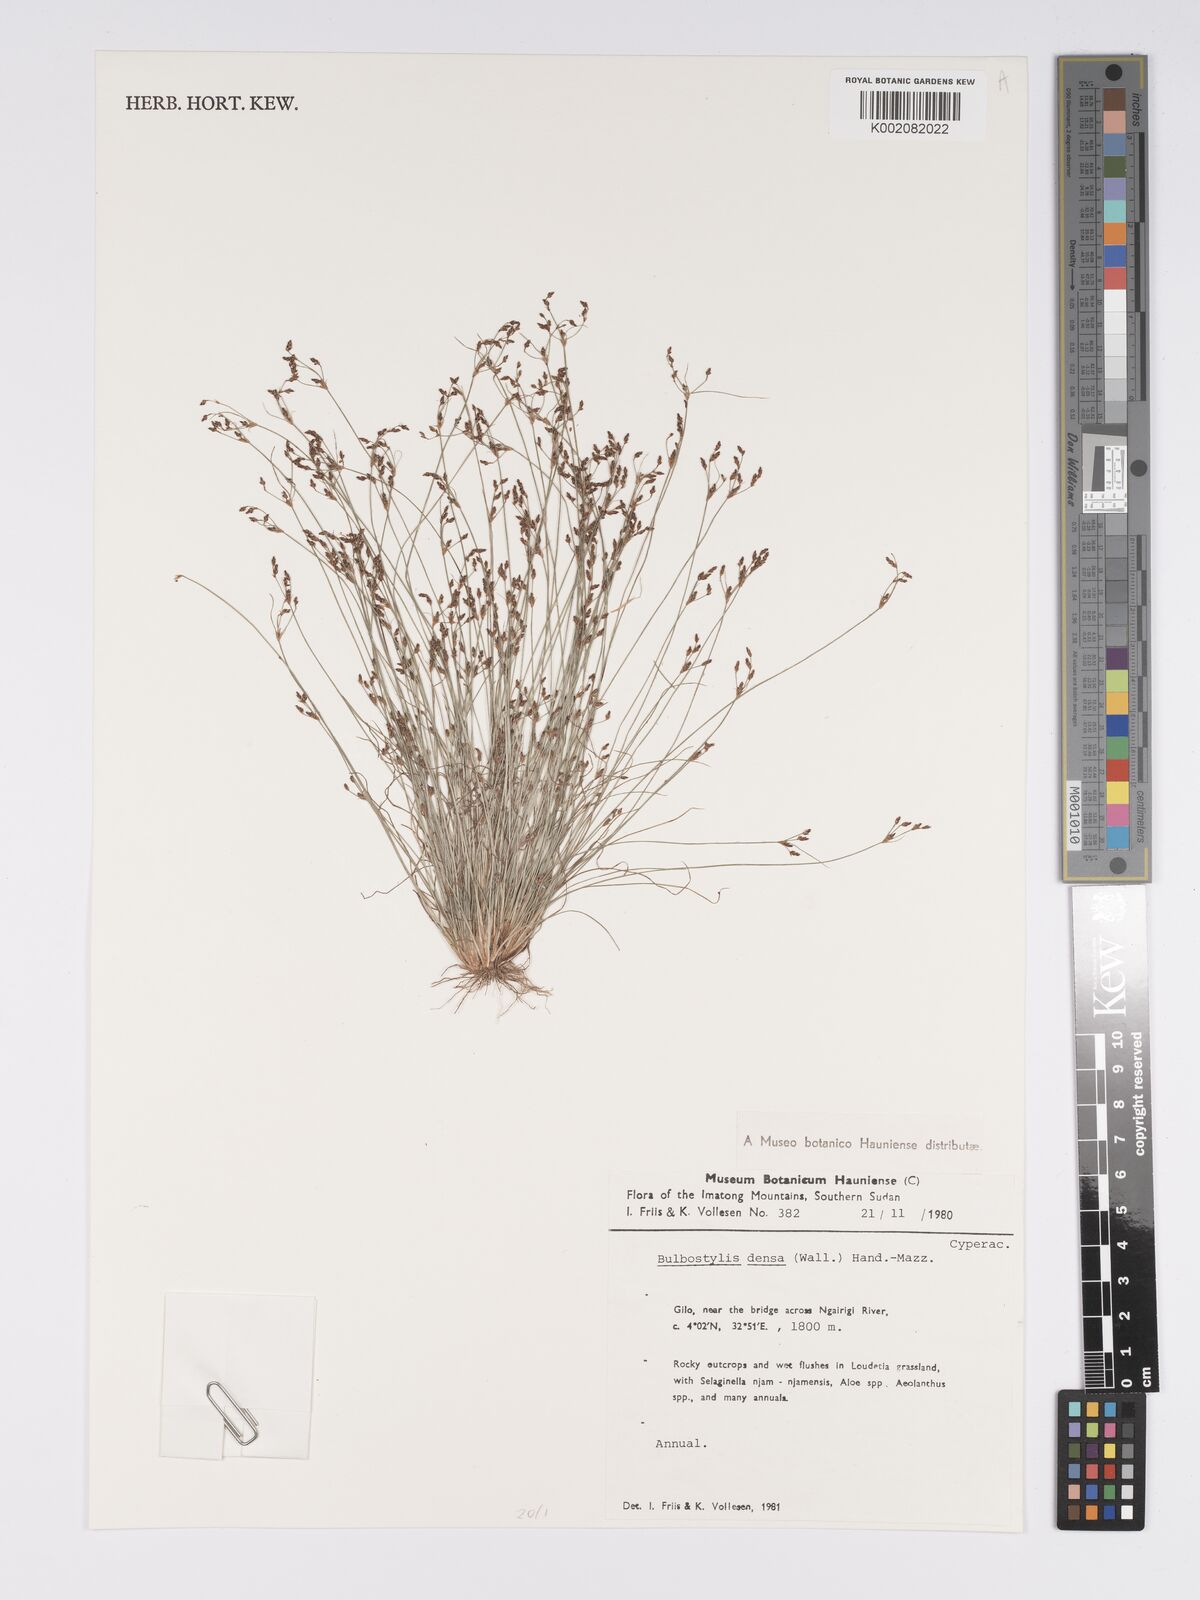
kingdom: Plantae
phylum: Tracheophyta
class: Liliopsida
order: Poales
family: Cyperaceae
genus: Bulbostylis
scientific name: Bulbostylis densa
